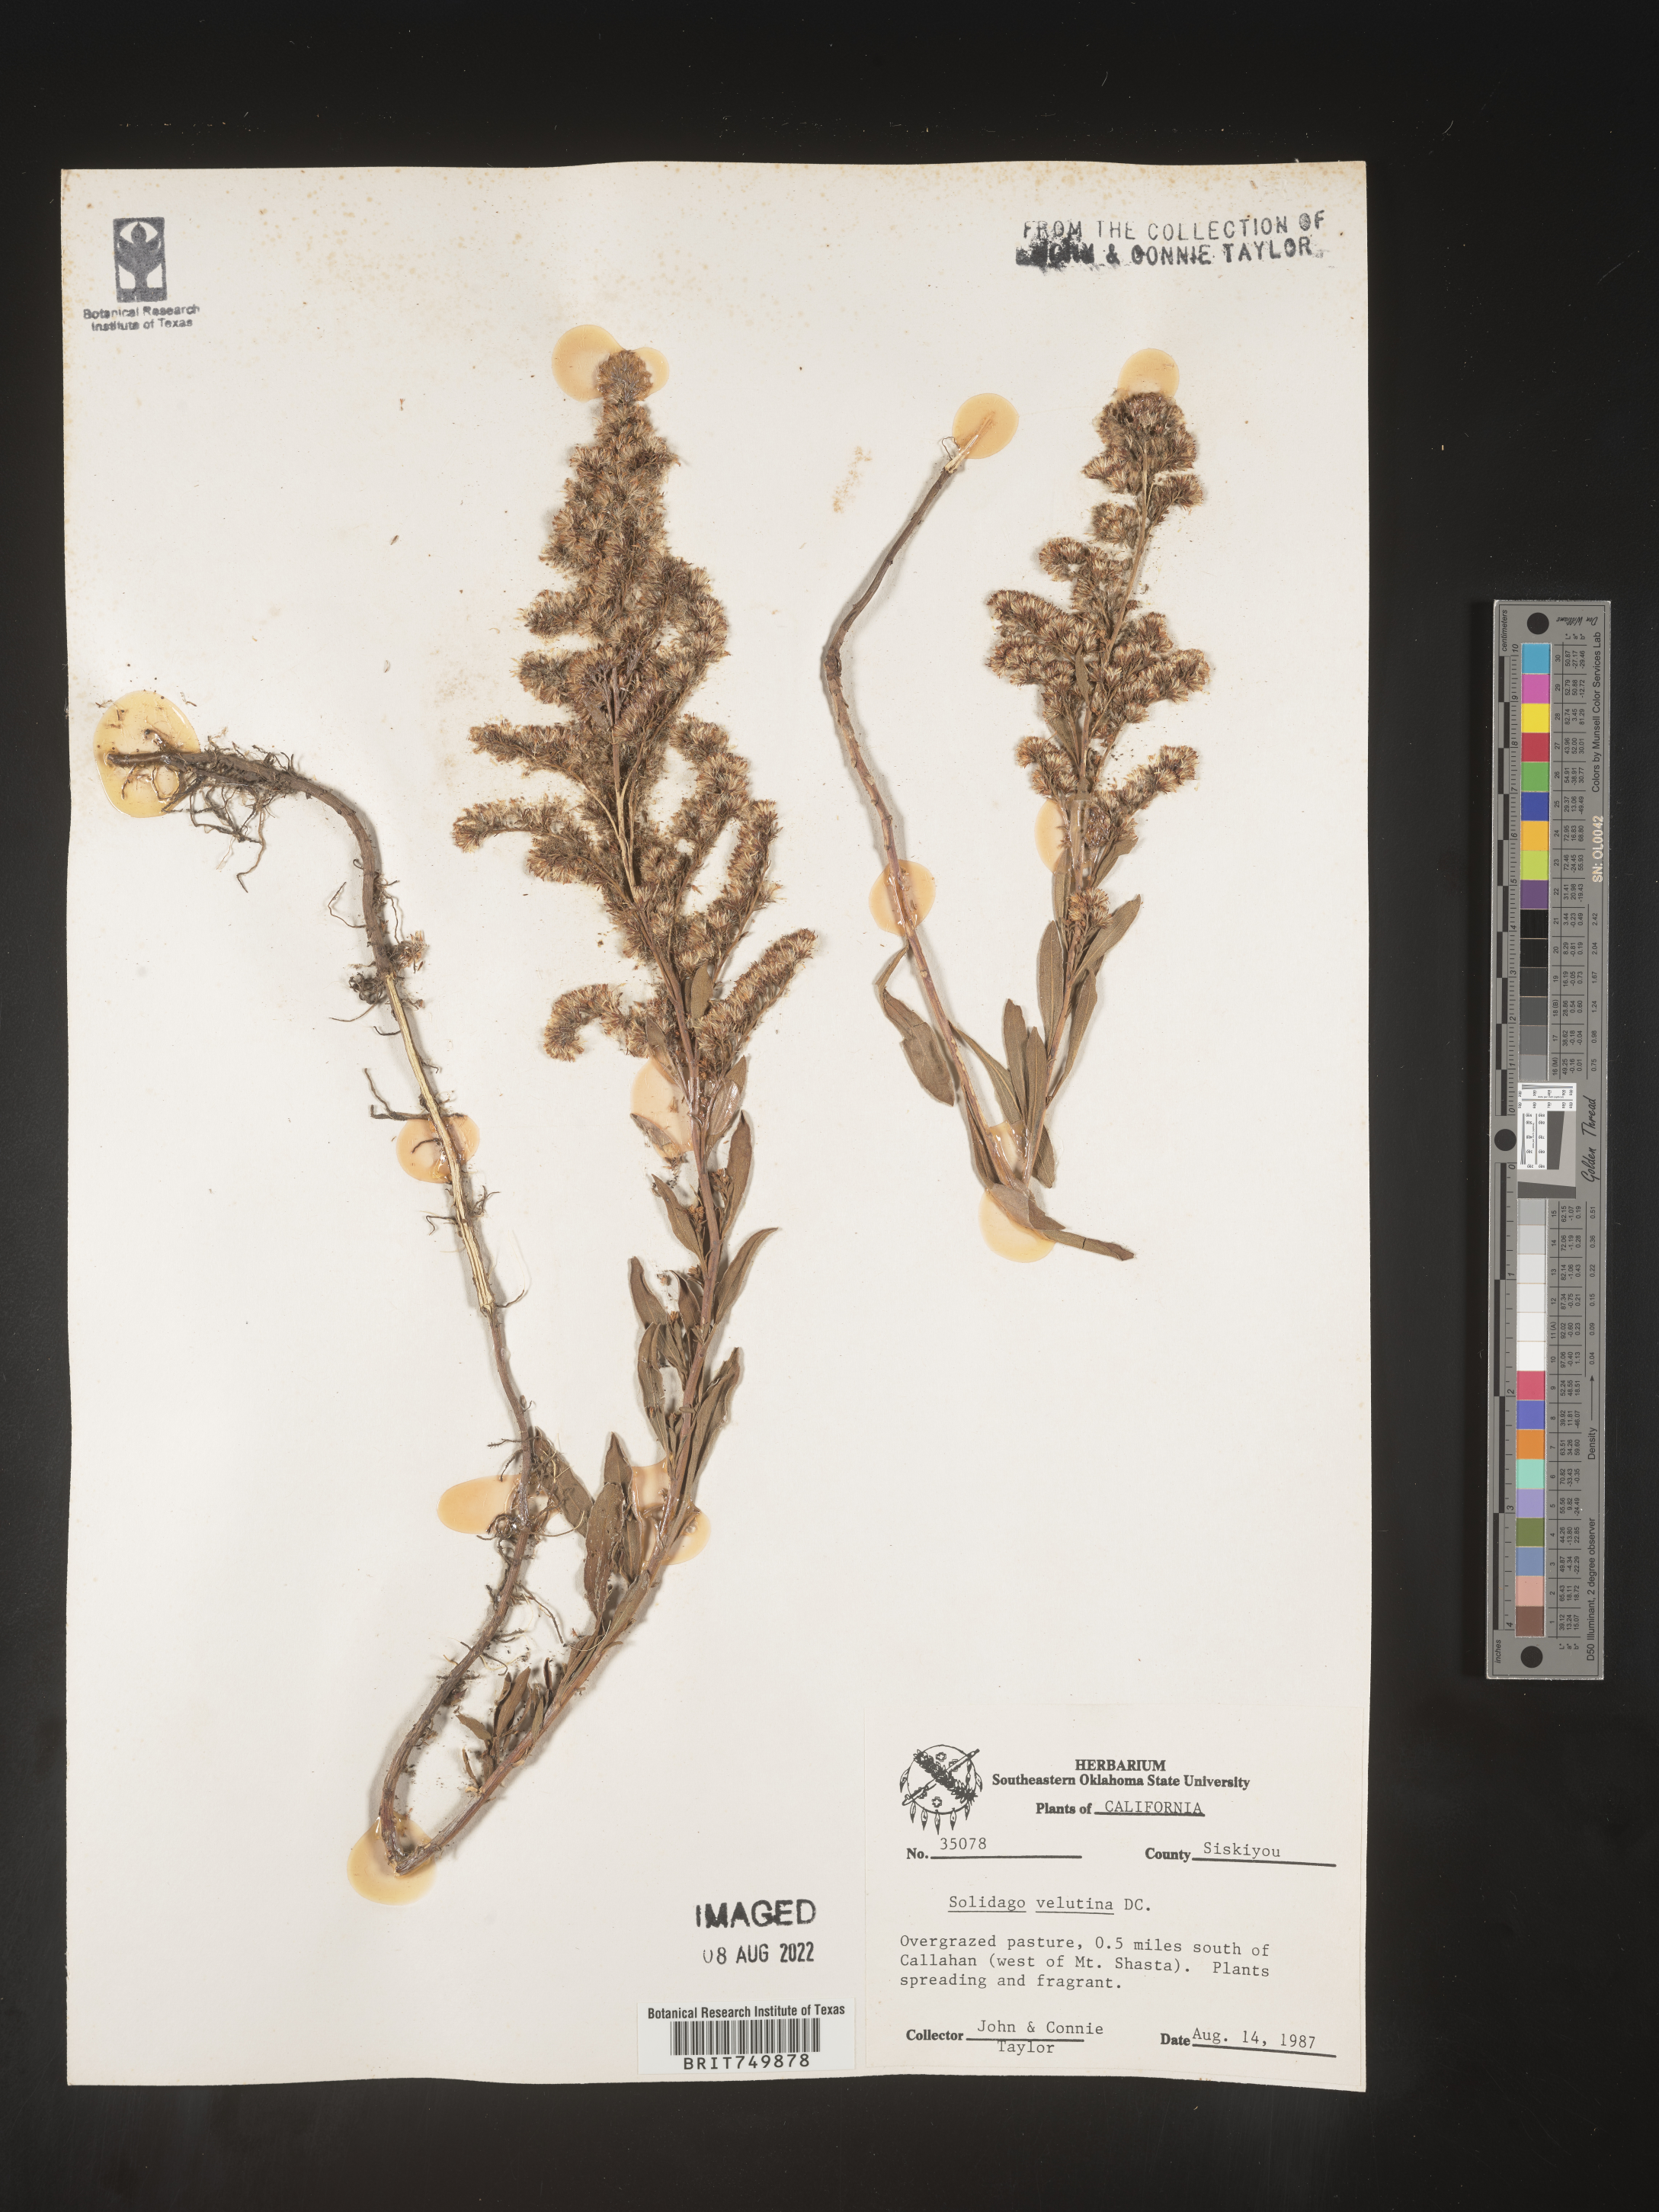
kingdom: Plantae
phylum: Tracheophyta
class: Magnoliopsida
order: Asterales
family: Asteraceae
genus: Solidago
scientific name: Solidago velutina
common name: Three-nerve goldenrod
